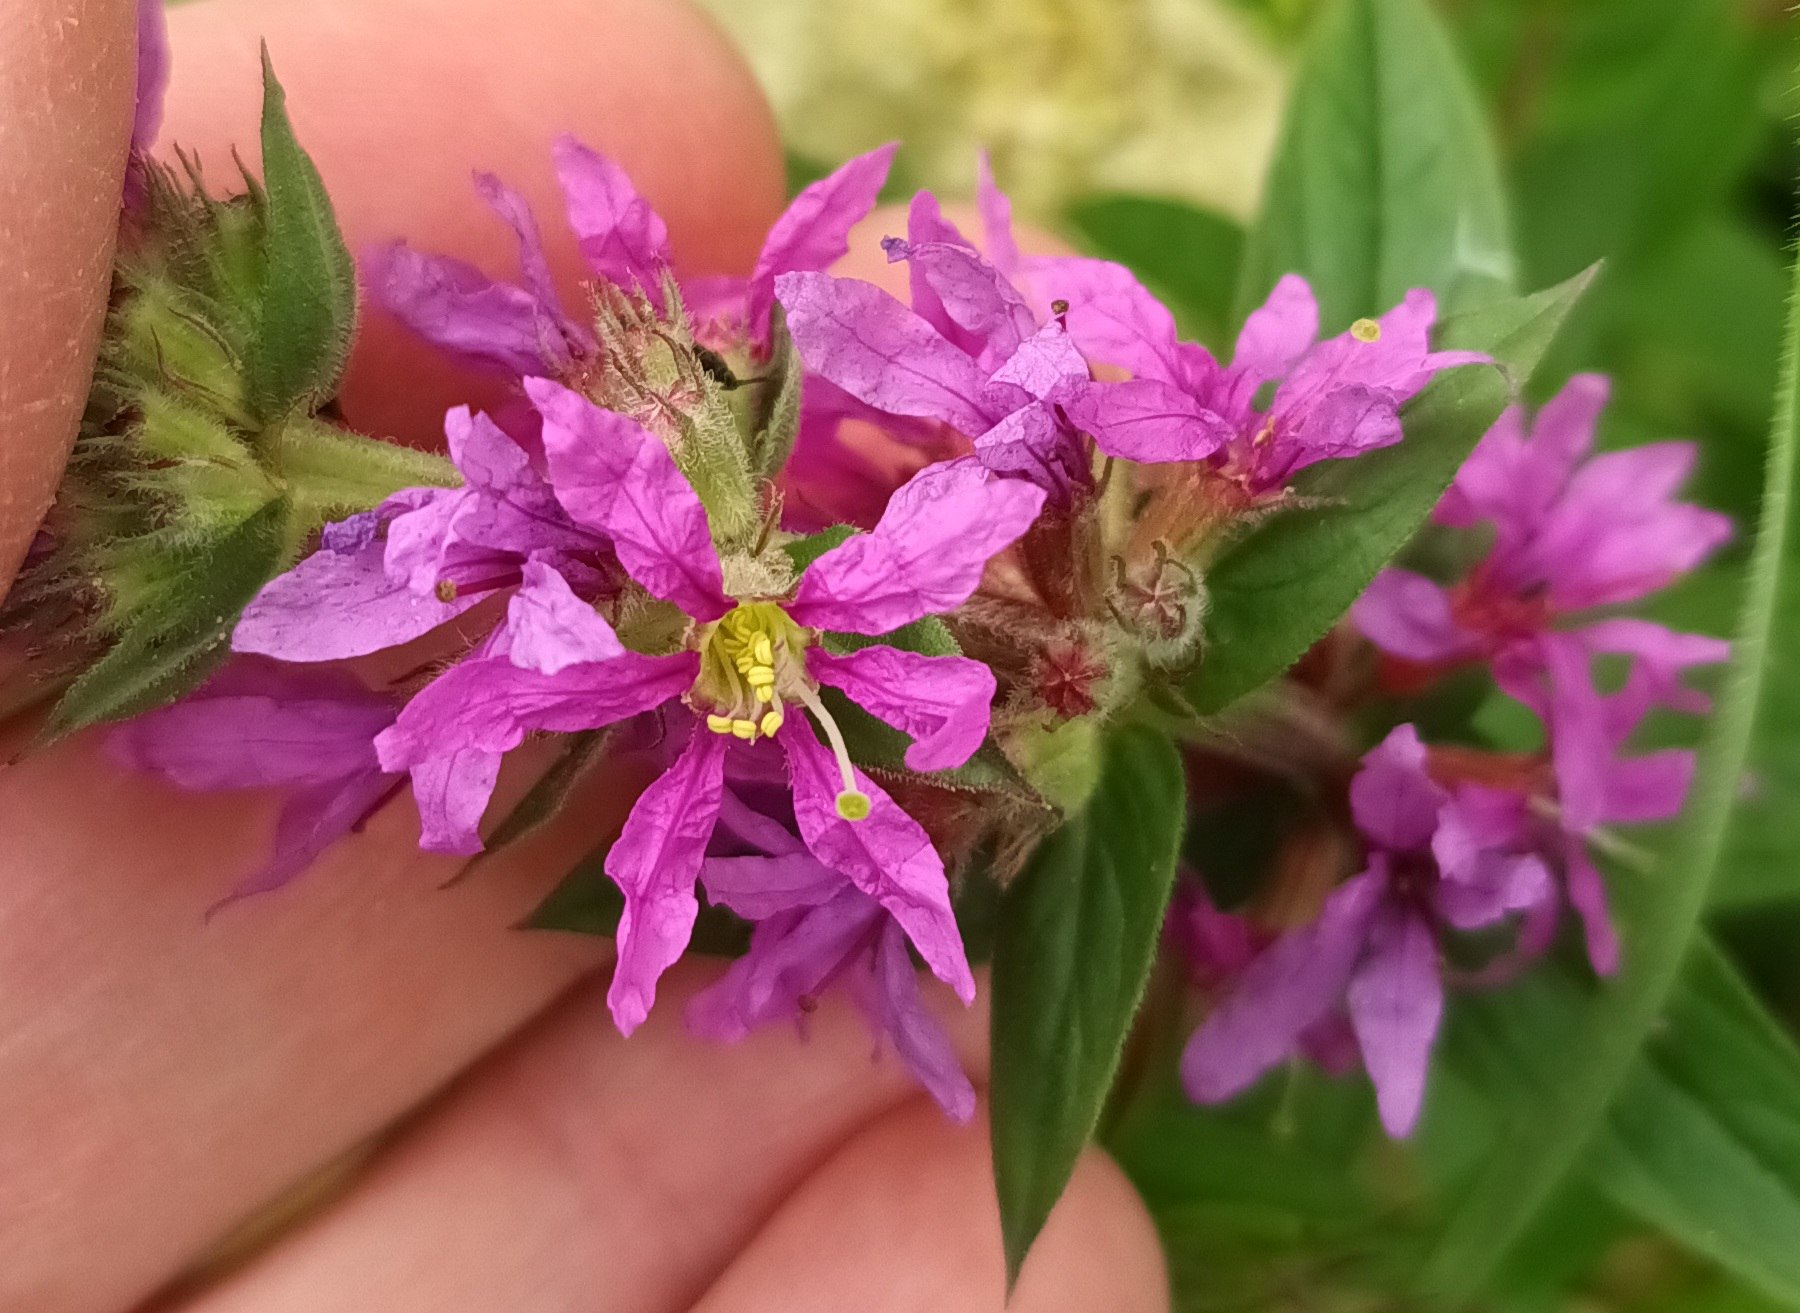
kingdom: Plantae
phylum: Tracheophyta
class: Magnoliopsida
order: Myrtales
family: Lythraceae
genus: Lythrum
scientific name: Lythrum salicaria
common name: Kattehale
